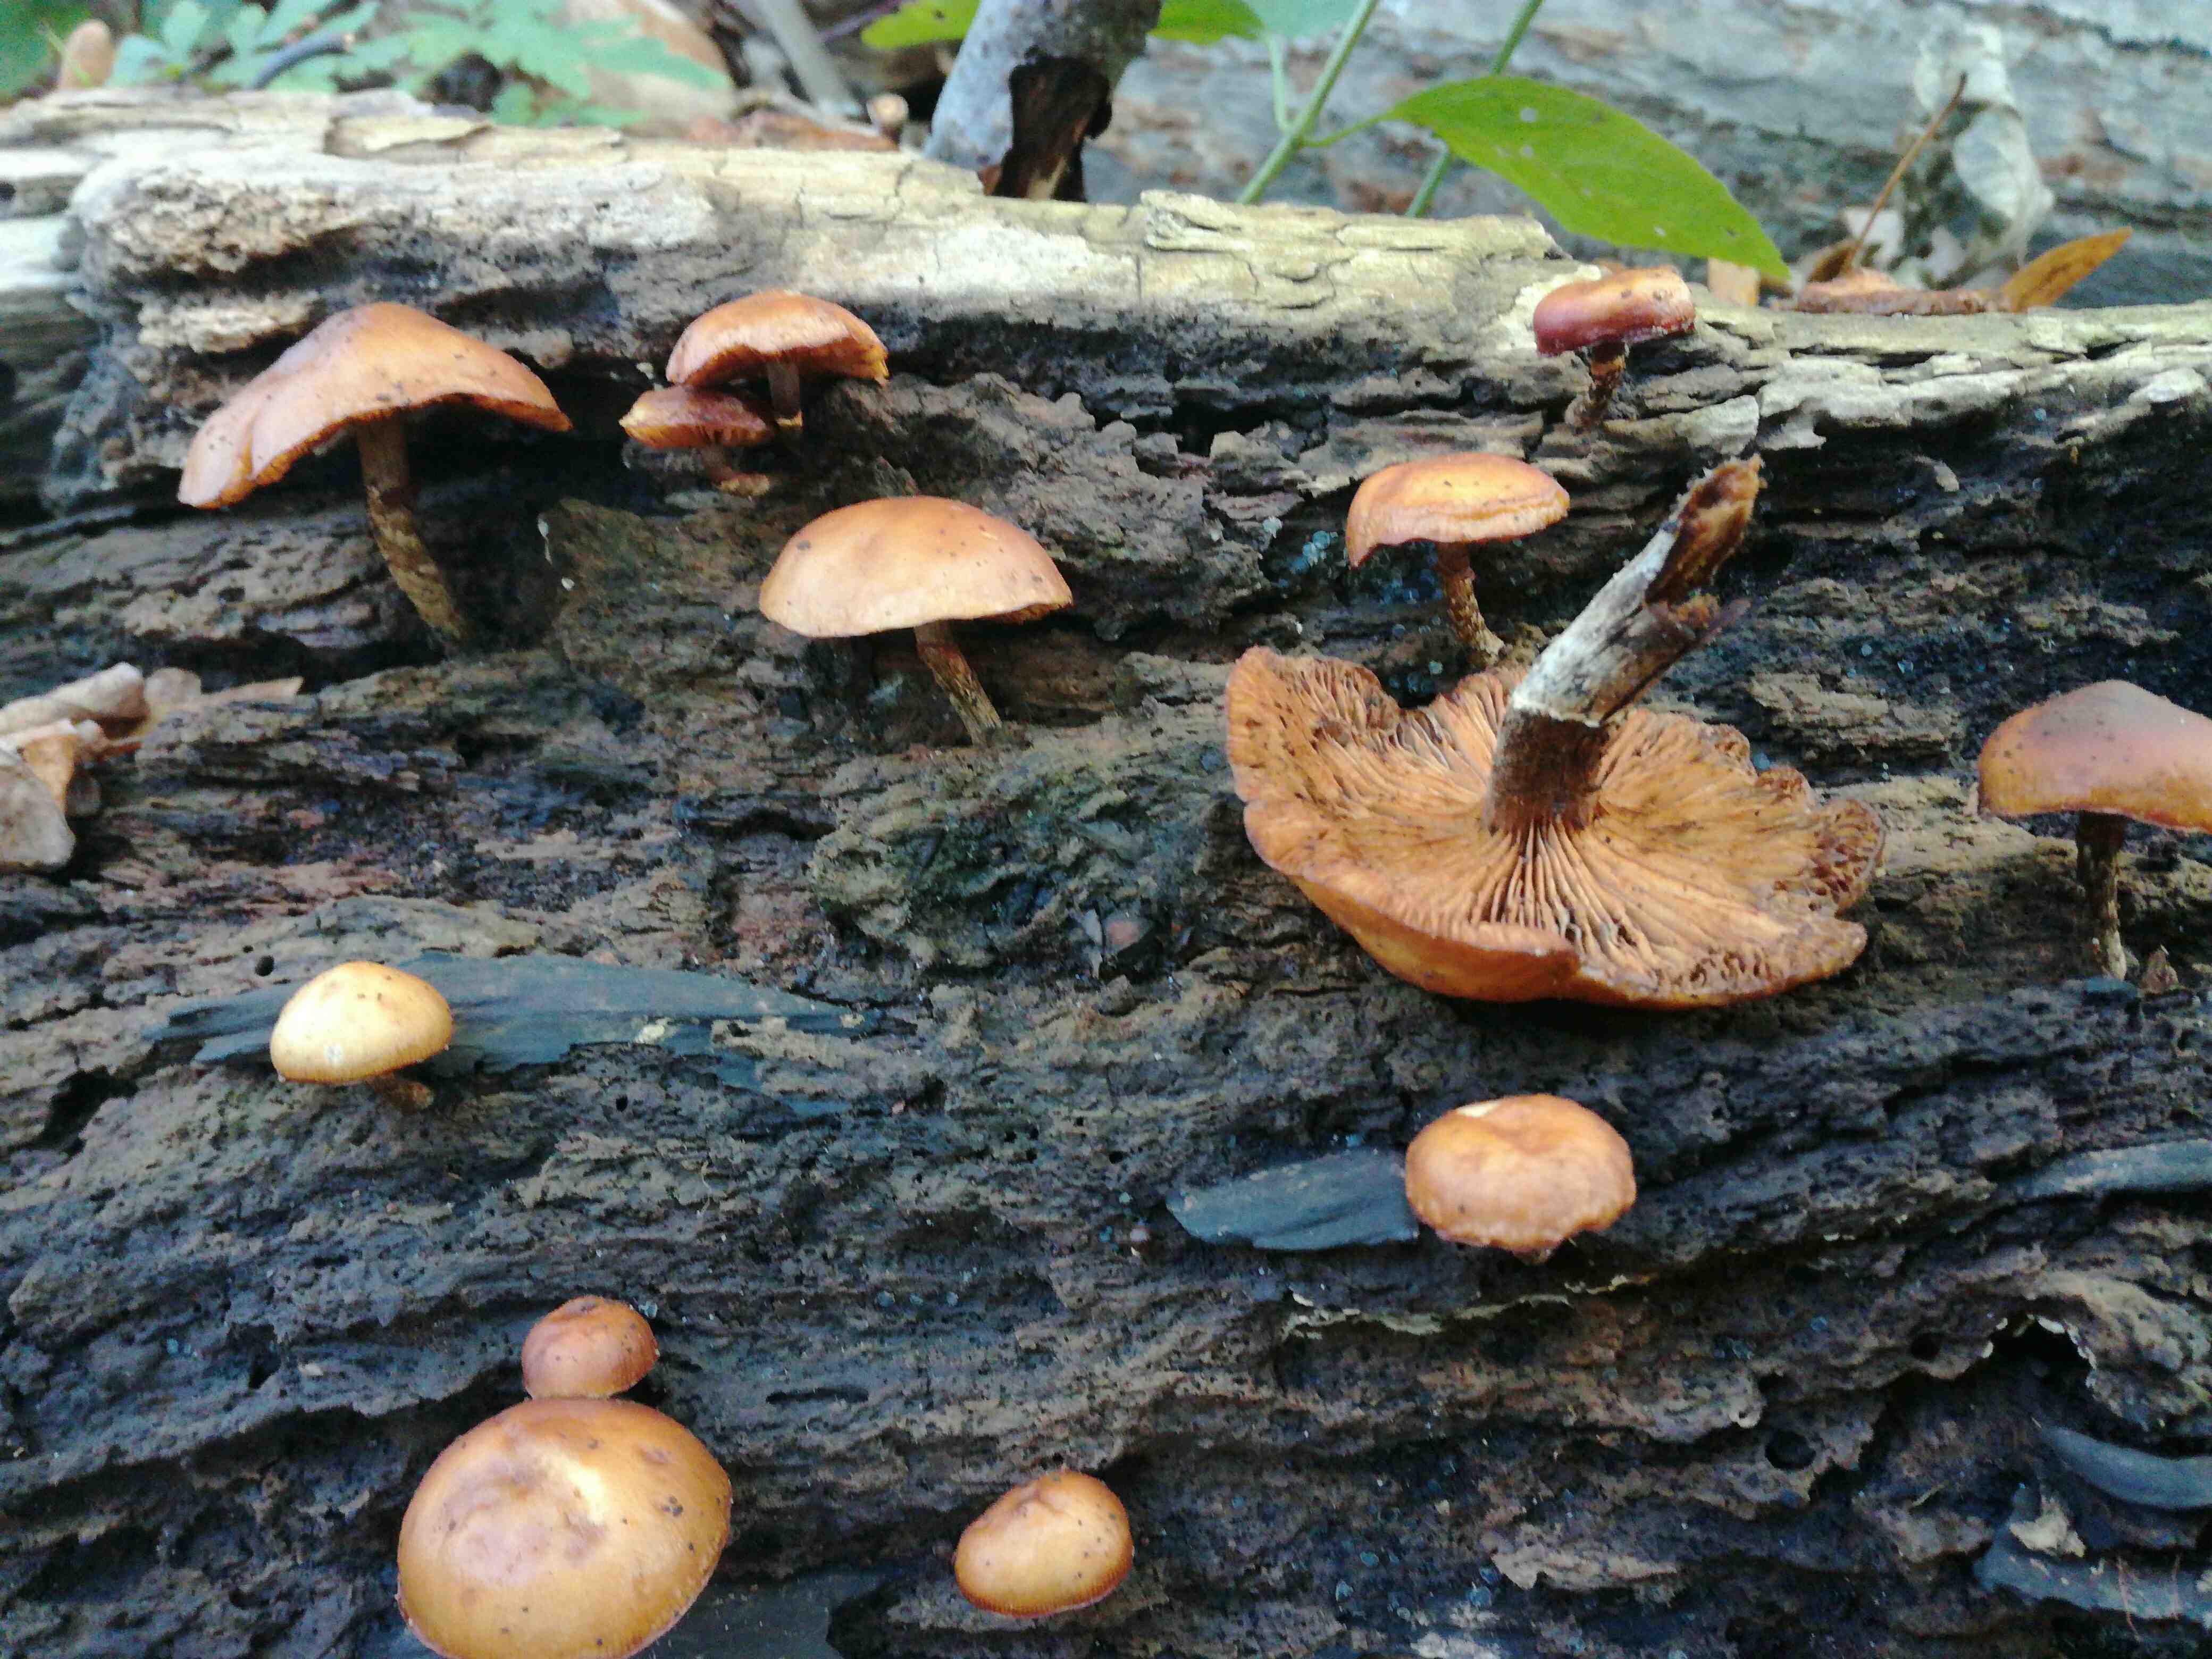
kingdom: Fungi
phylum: Basidiomycota
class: Agaricomycetes
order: Agaricales
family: Hymenogastraceae
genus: Galerina
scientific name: Galerina marginata
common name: randbæltet hjelmhat
